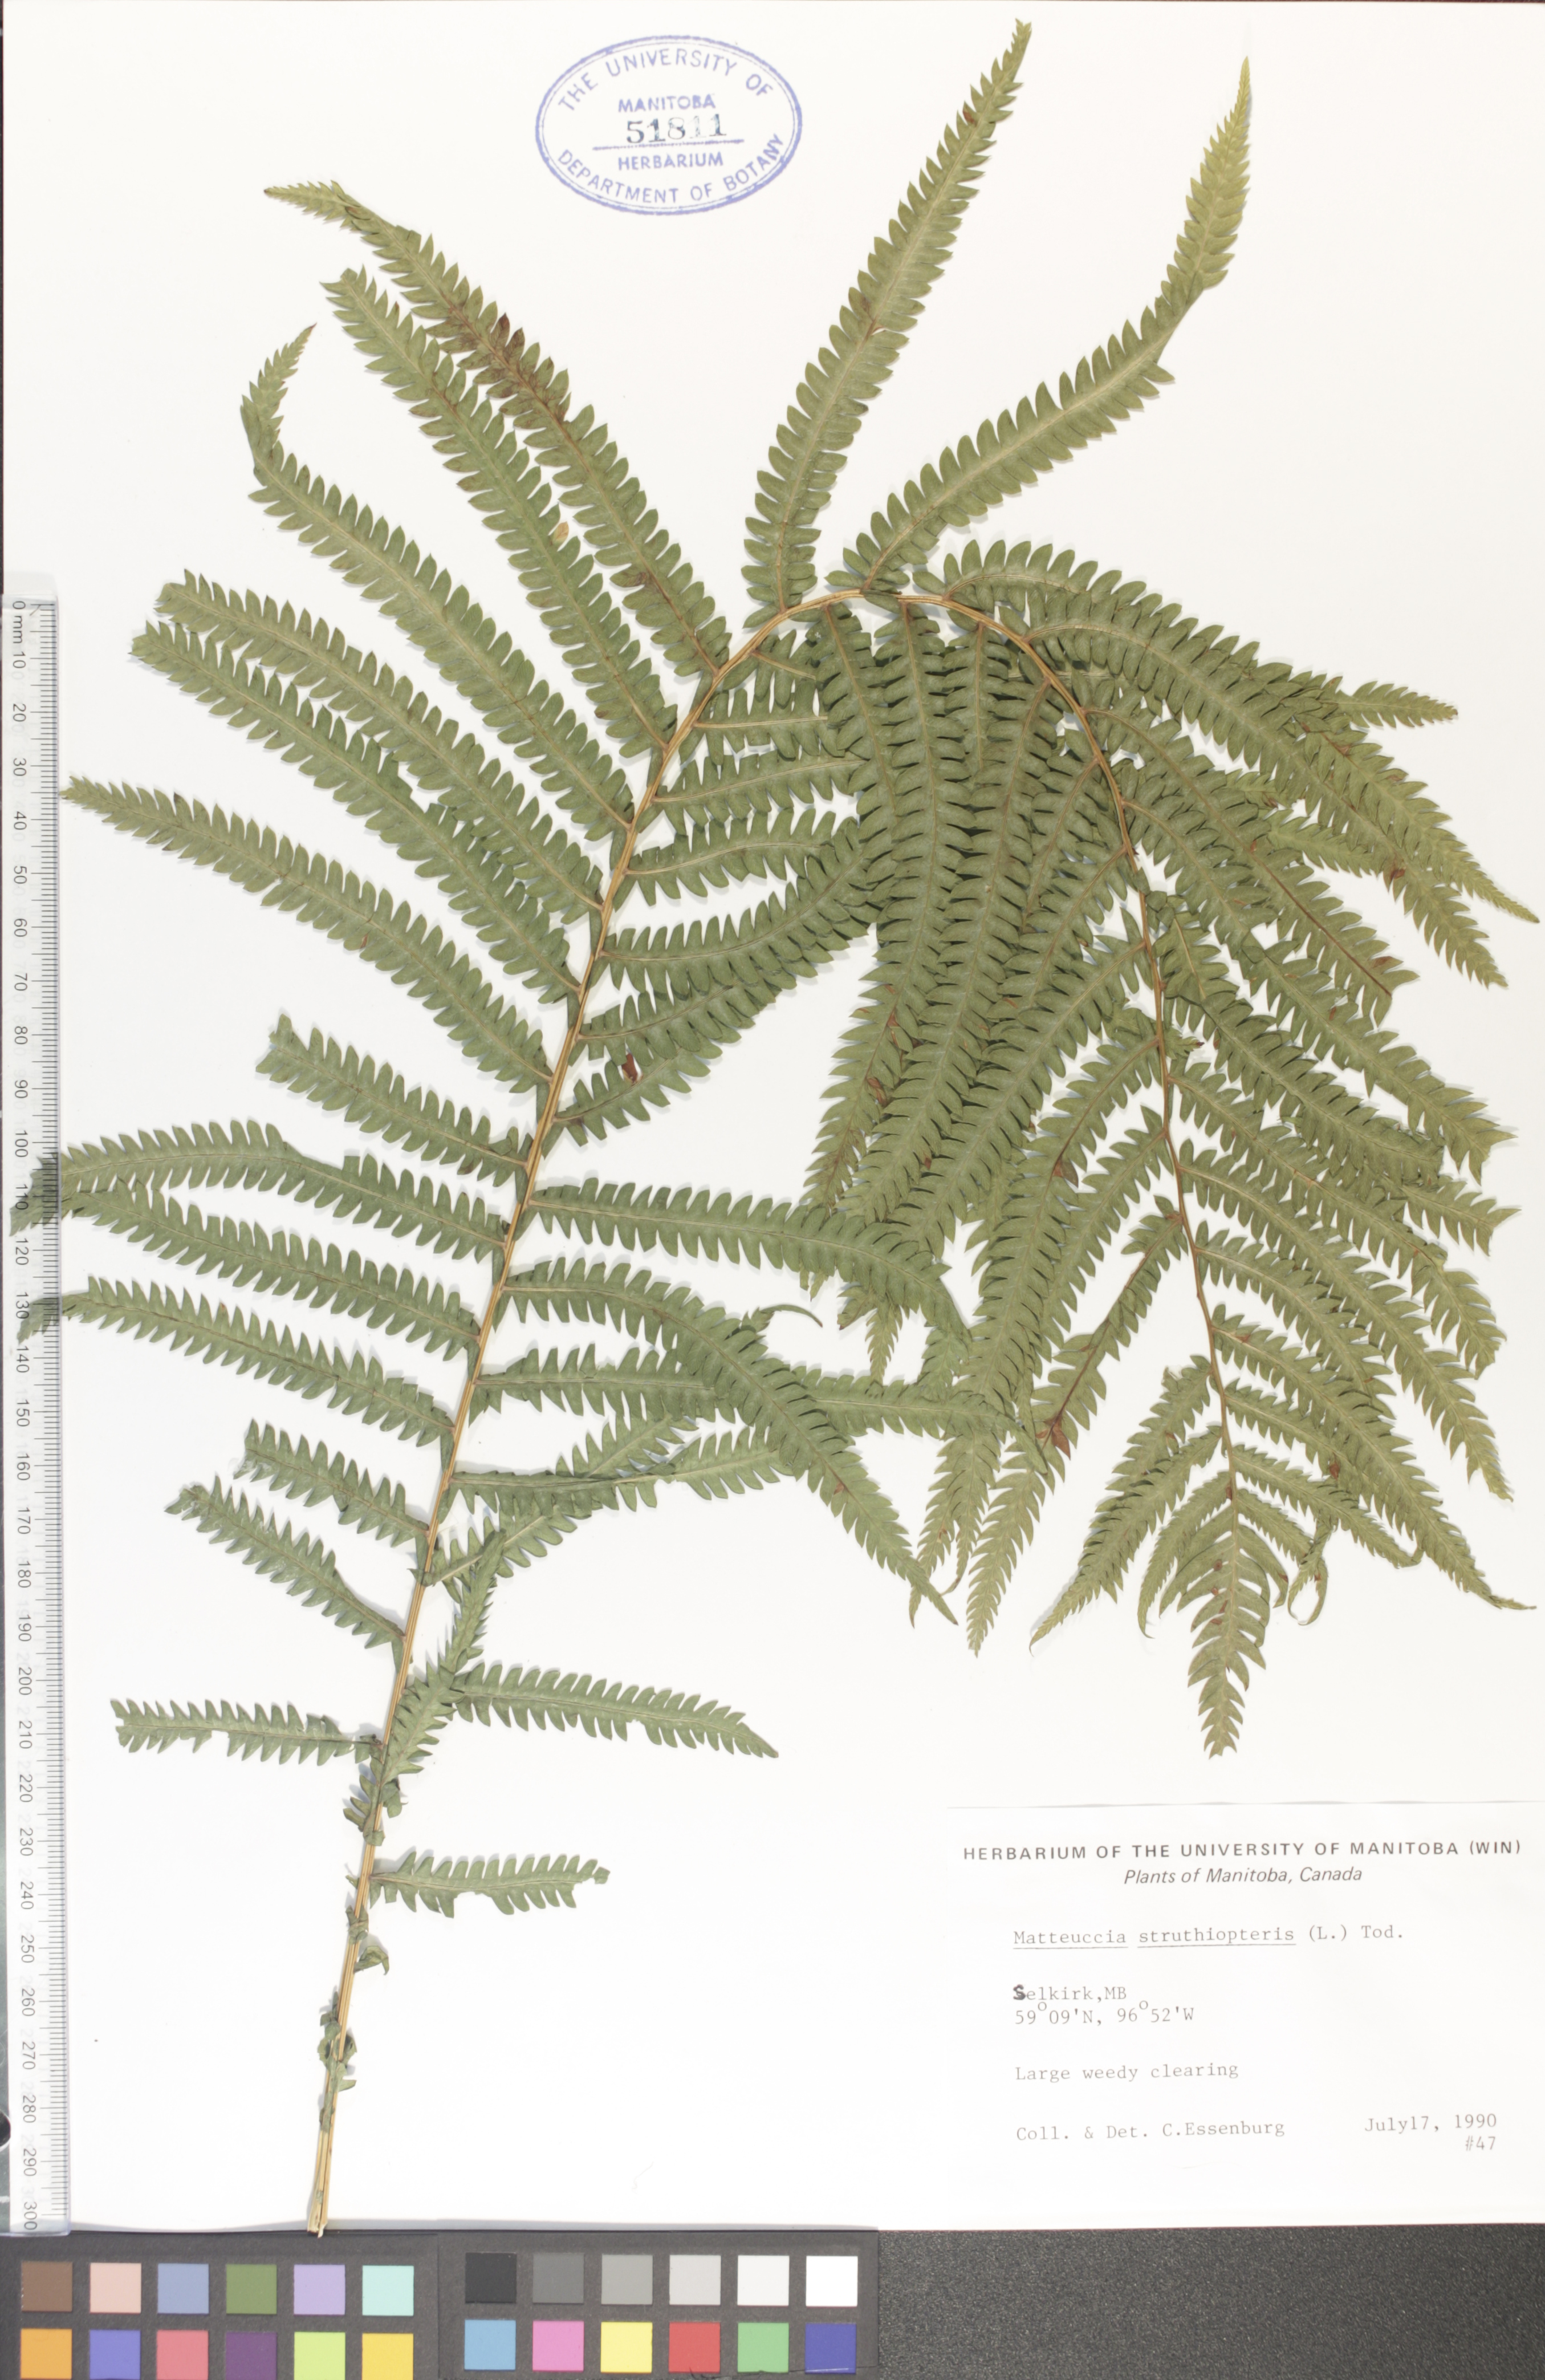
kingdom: Plantae
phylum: Tracheophyta
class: Polypodiopsida
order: Polypodiales
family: Onocleaceae
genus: Matteuccia
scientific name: Matteuccia struthiopteris
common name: Ostrich fern
